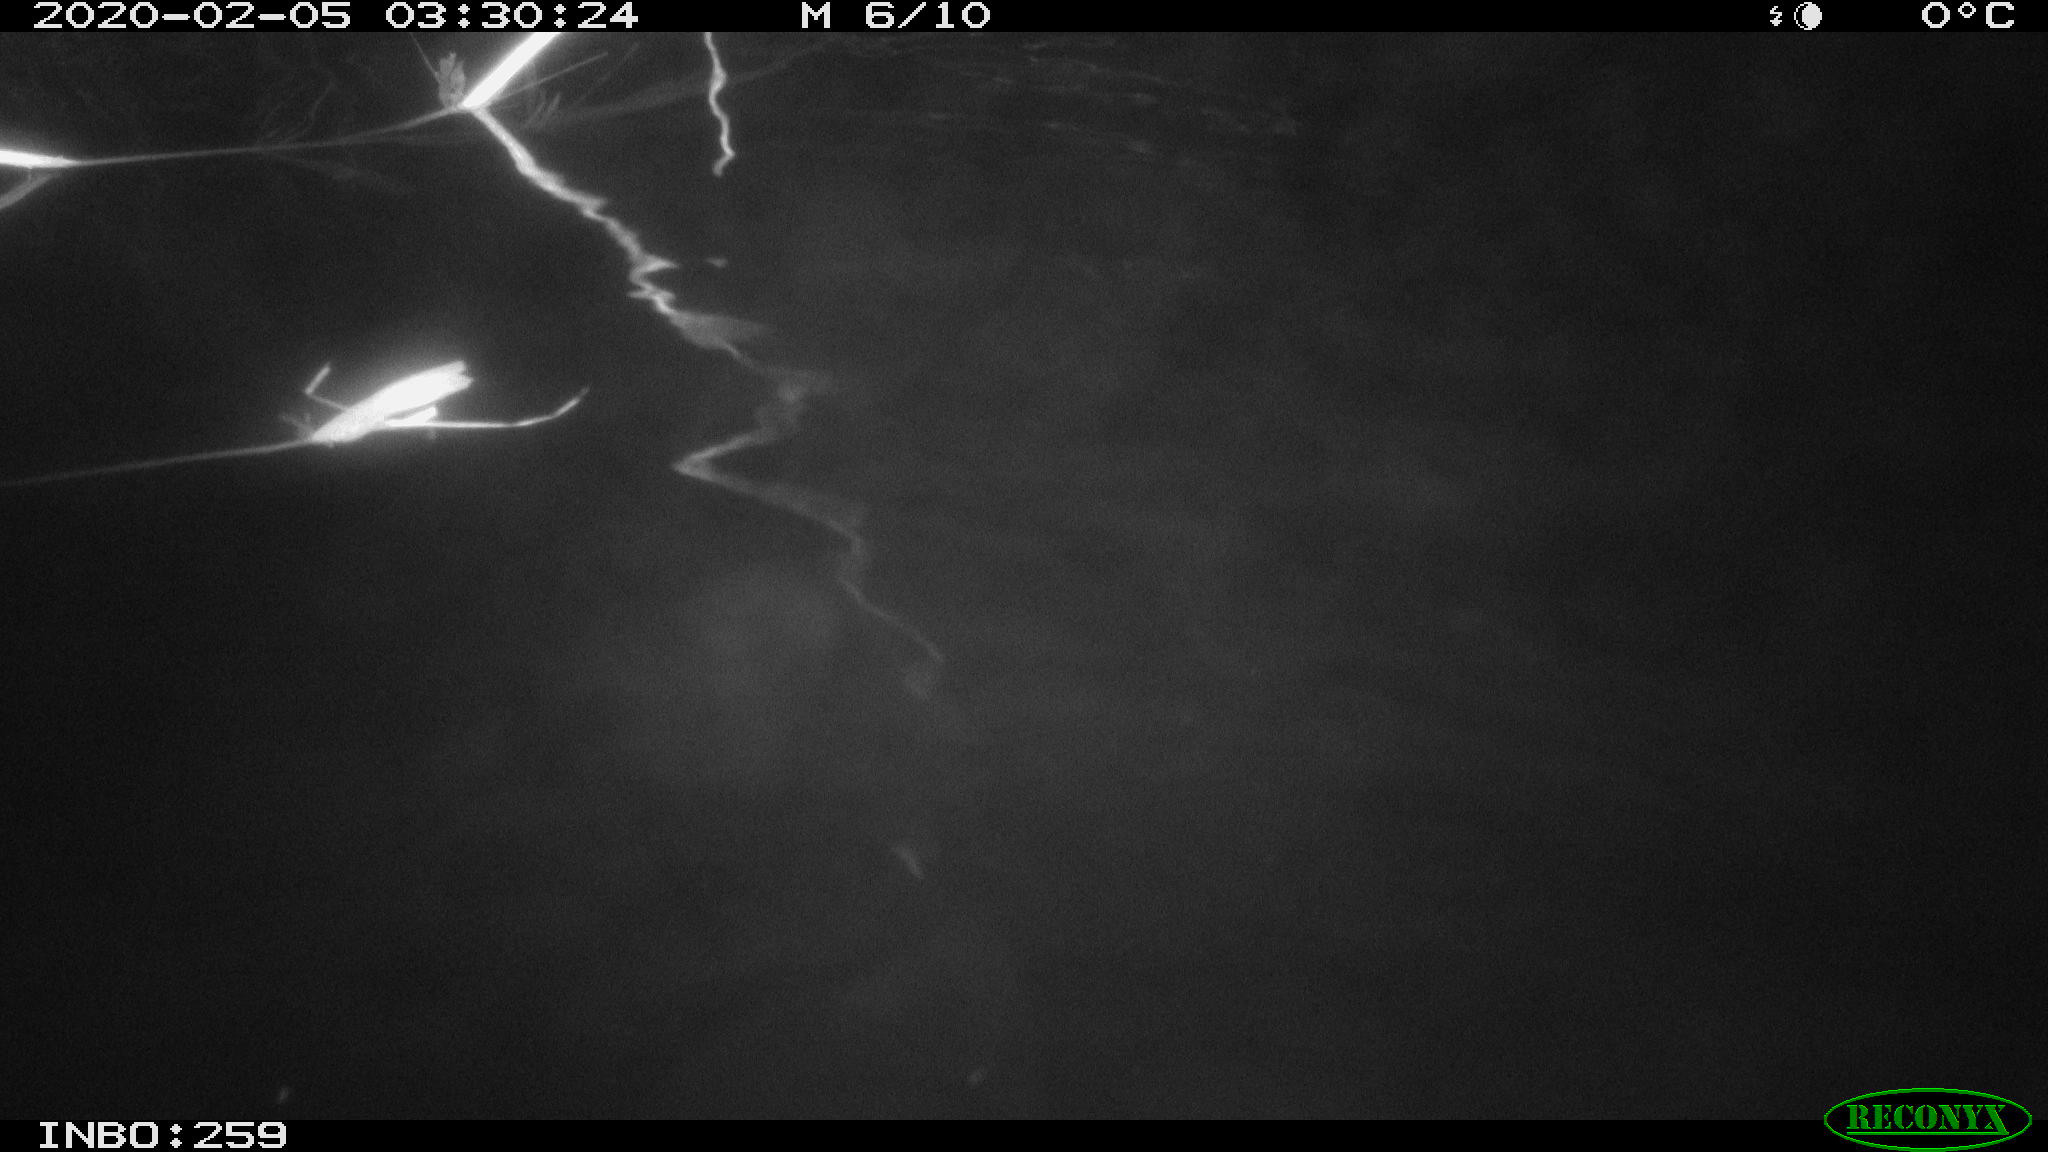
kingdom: Animalia
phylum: Chordata
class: Mammalia
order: Rodentia
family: Cricetidae
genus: Ondatra
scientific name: Ondatra zibethicus
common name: Muskrat
